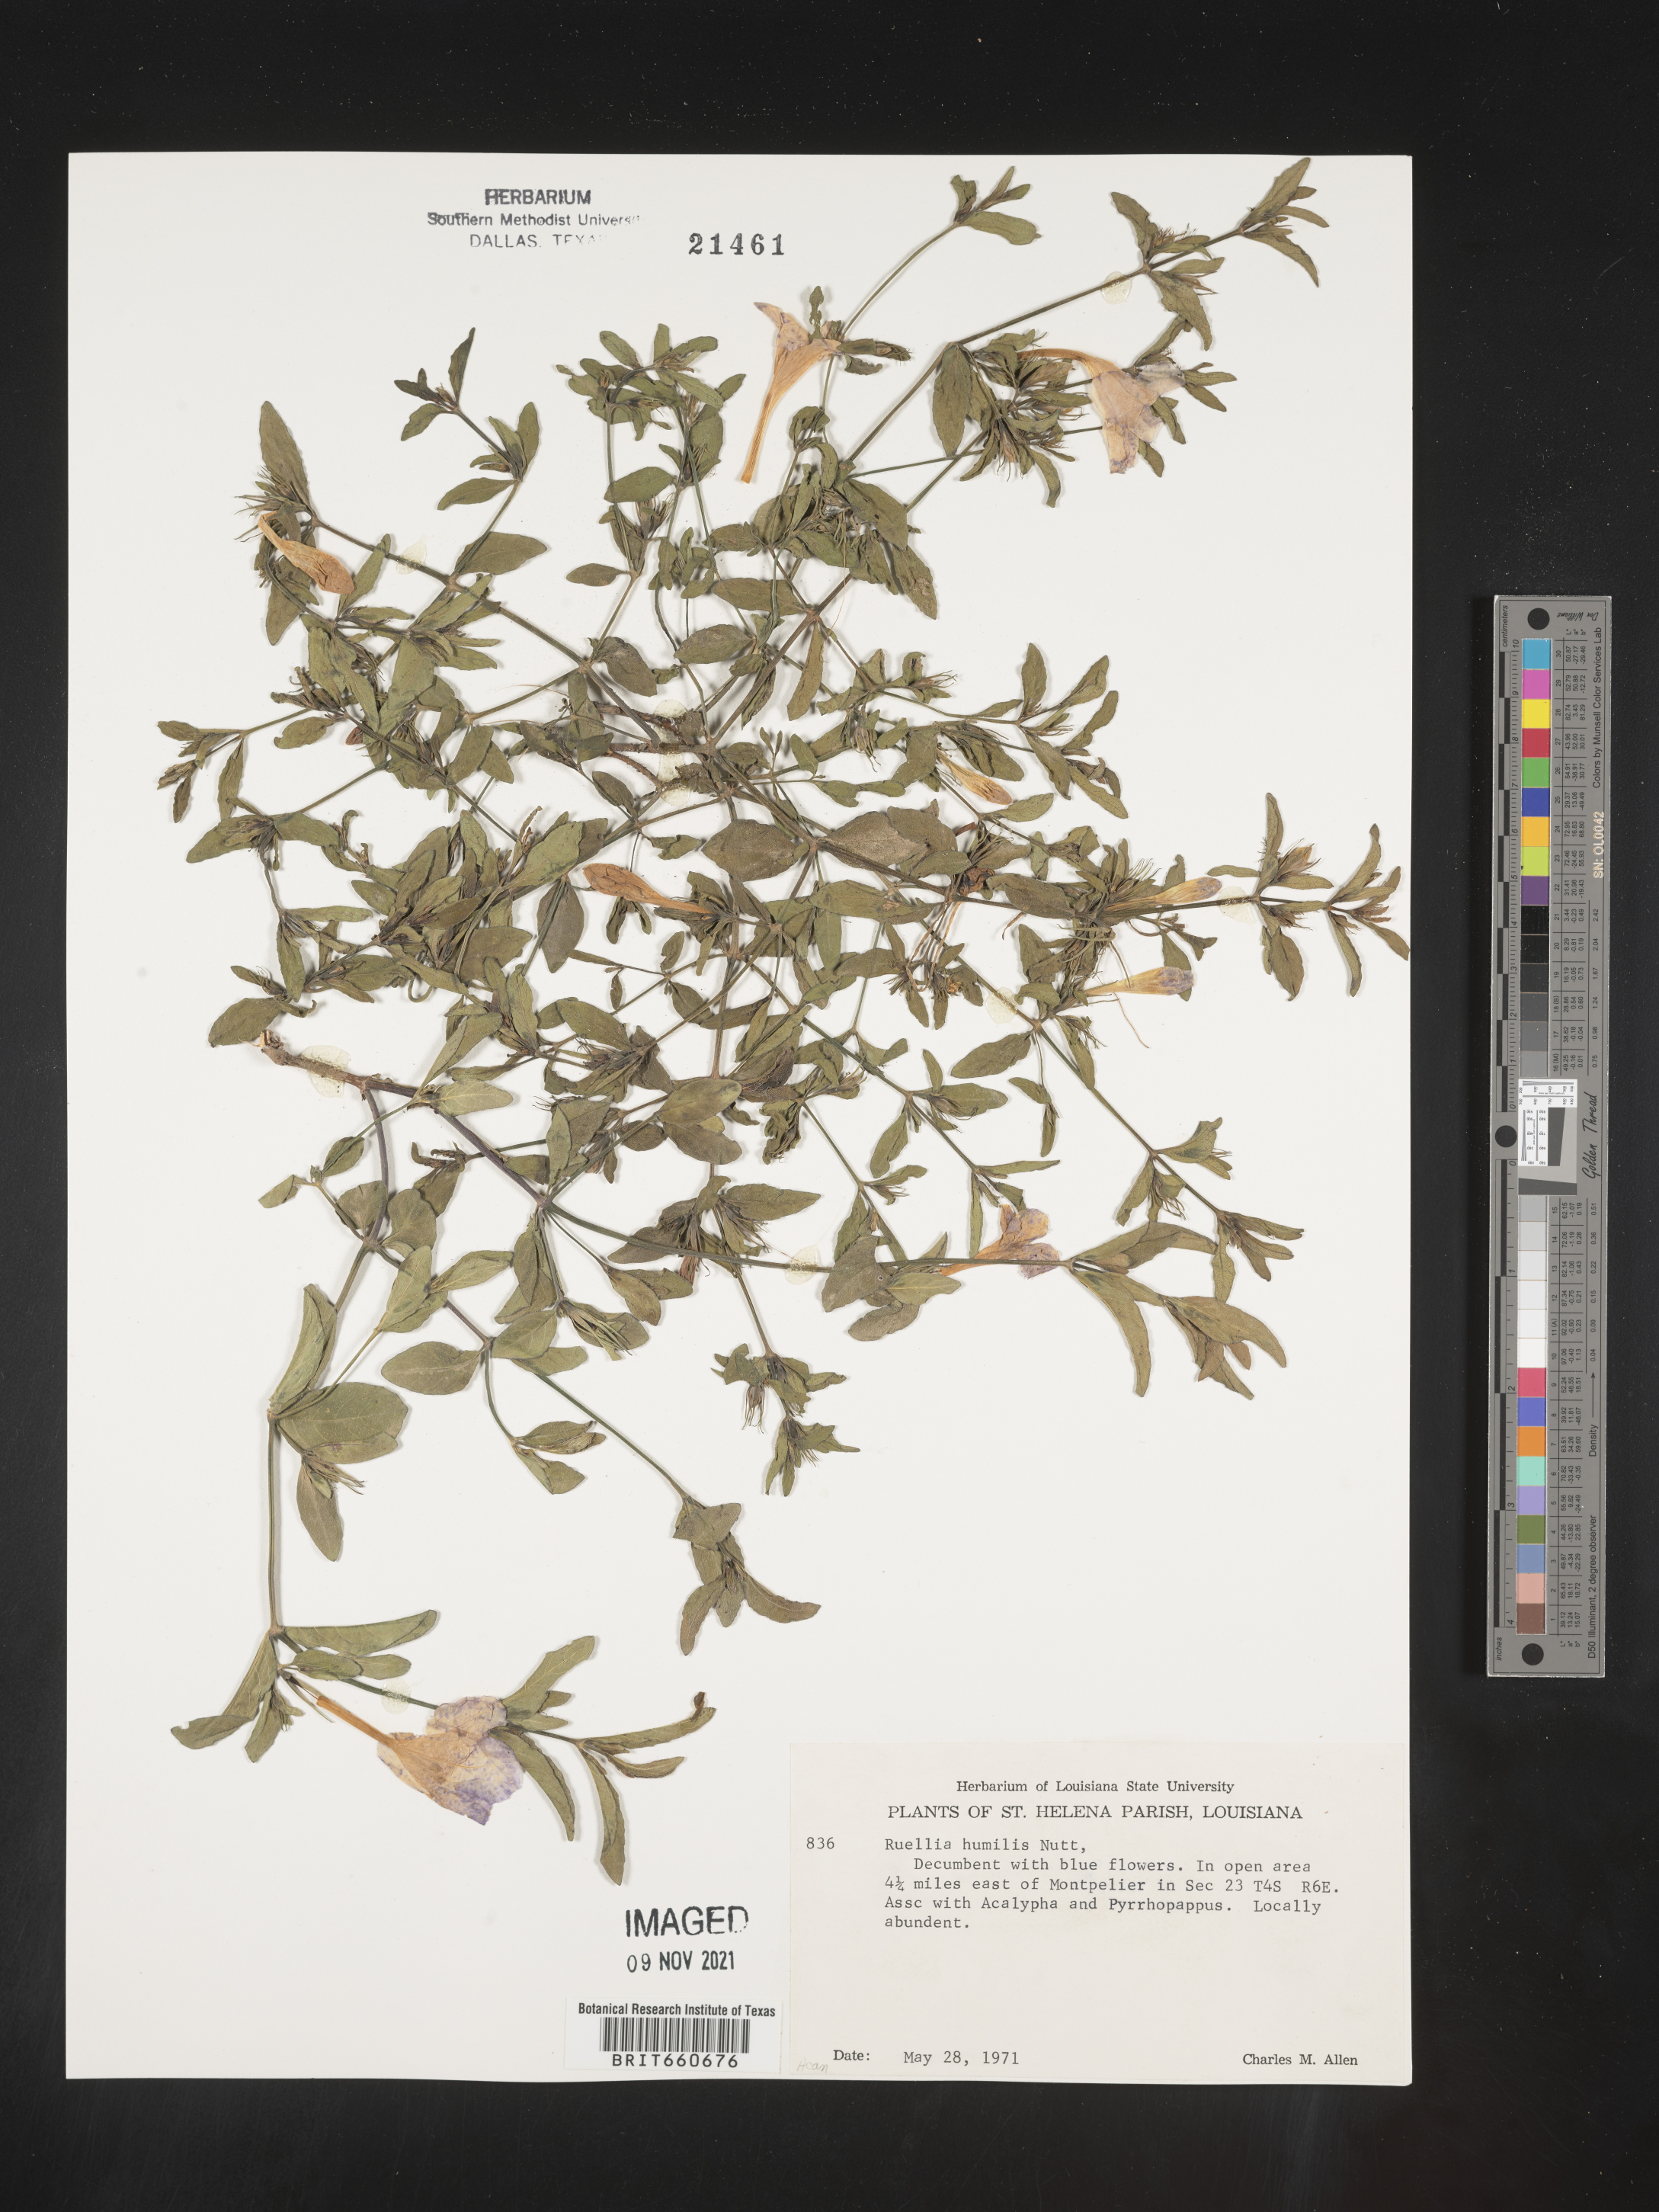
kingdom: Plantae
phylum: Tracheophyta
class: Magnoliopsida
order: Lamiales
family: Acanthaceae
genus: Ruellia
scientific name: Ruellia humilis
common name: Fringe-leaf ruellia
